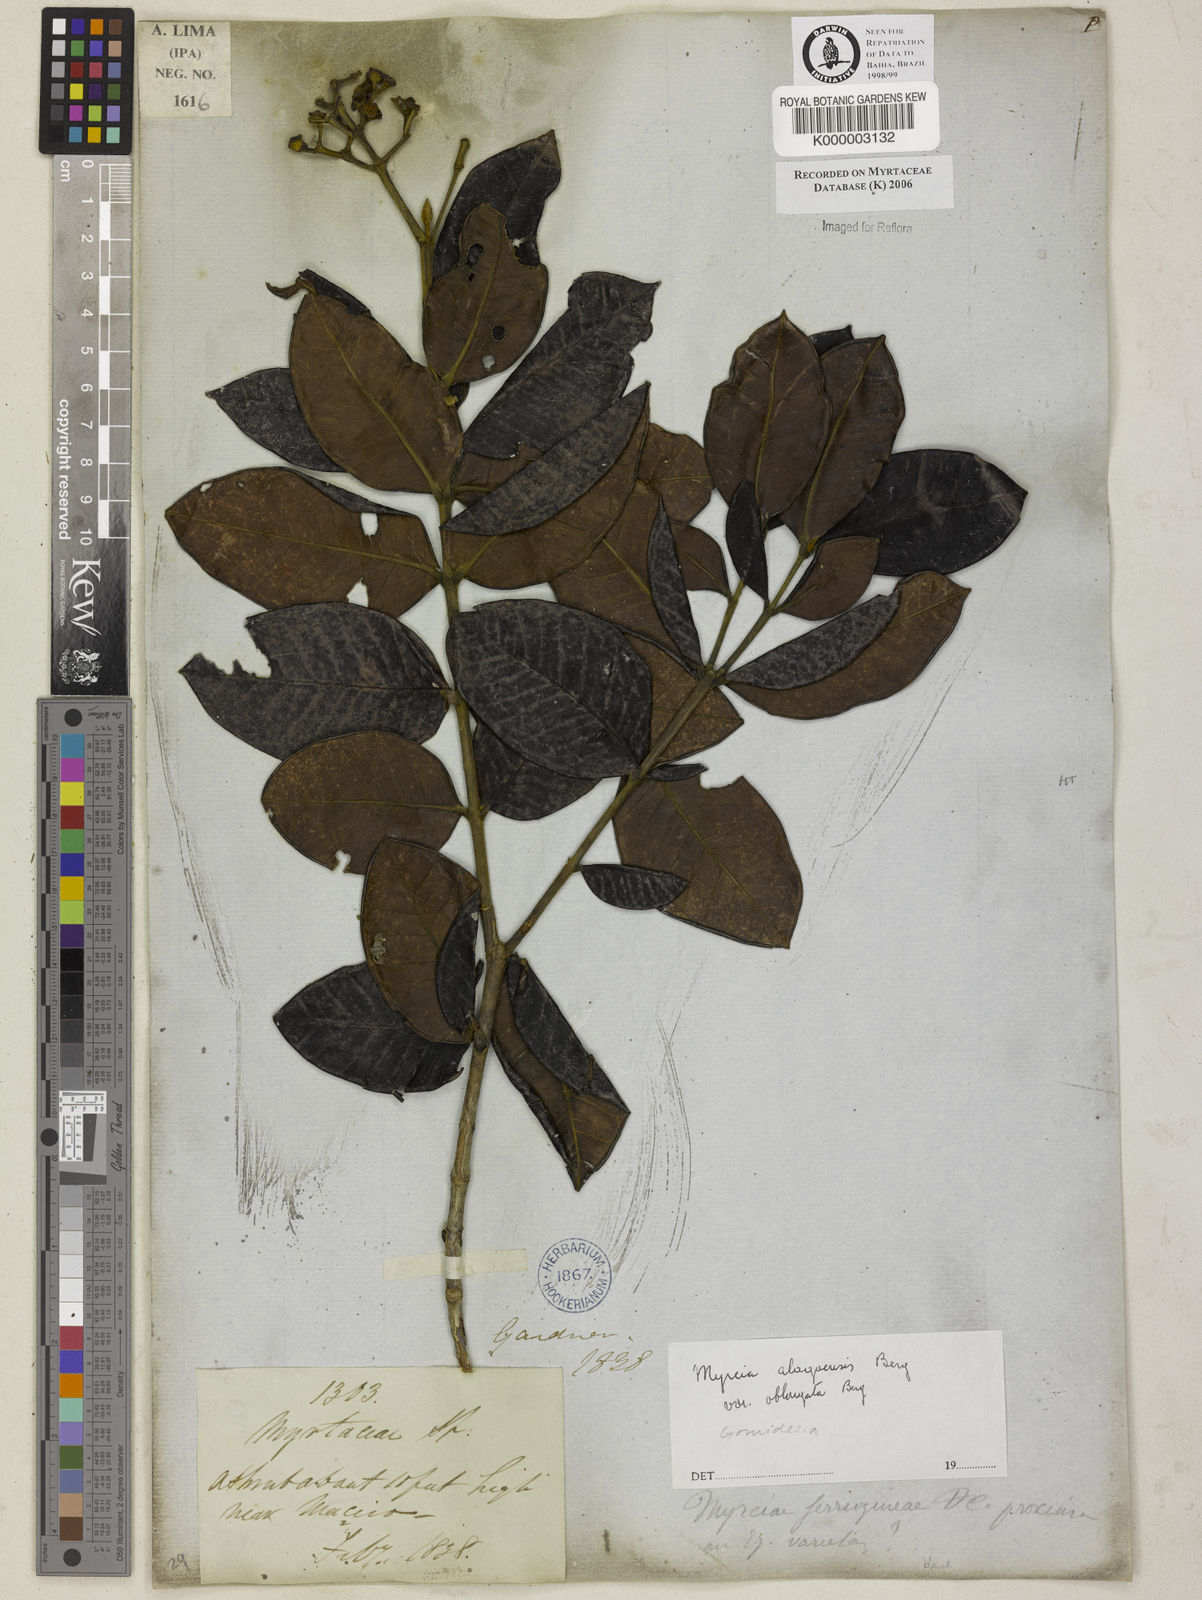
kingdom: Plantae
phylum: Tracheophyta
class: Magnoliopsida
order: Myrtales
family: Myrtaceae
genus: Myrcia
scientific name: Myrcia
